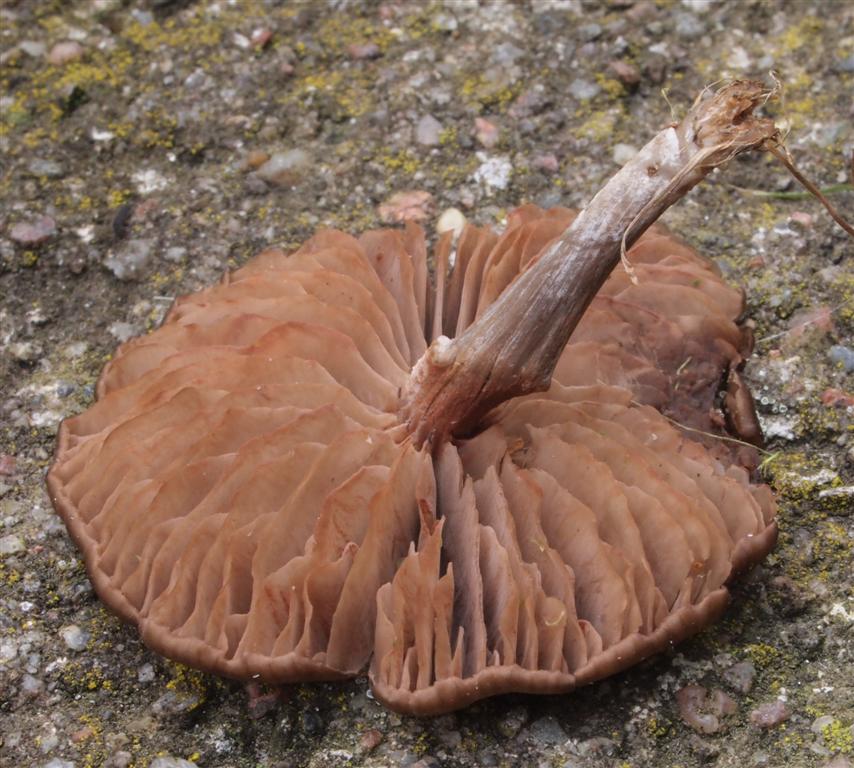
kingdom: Fungi
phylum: Basidiomycota
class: Agaricomycetes
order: Agaricales
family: Entolomataceae
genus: Entoloma
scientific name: Entoloma sericeum
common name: silkeglinsende rødblad
